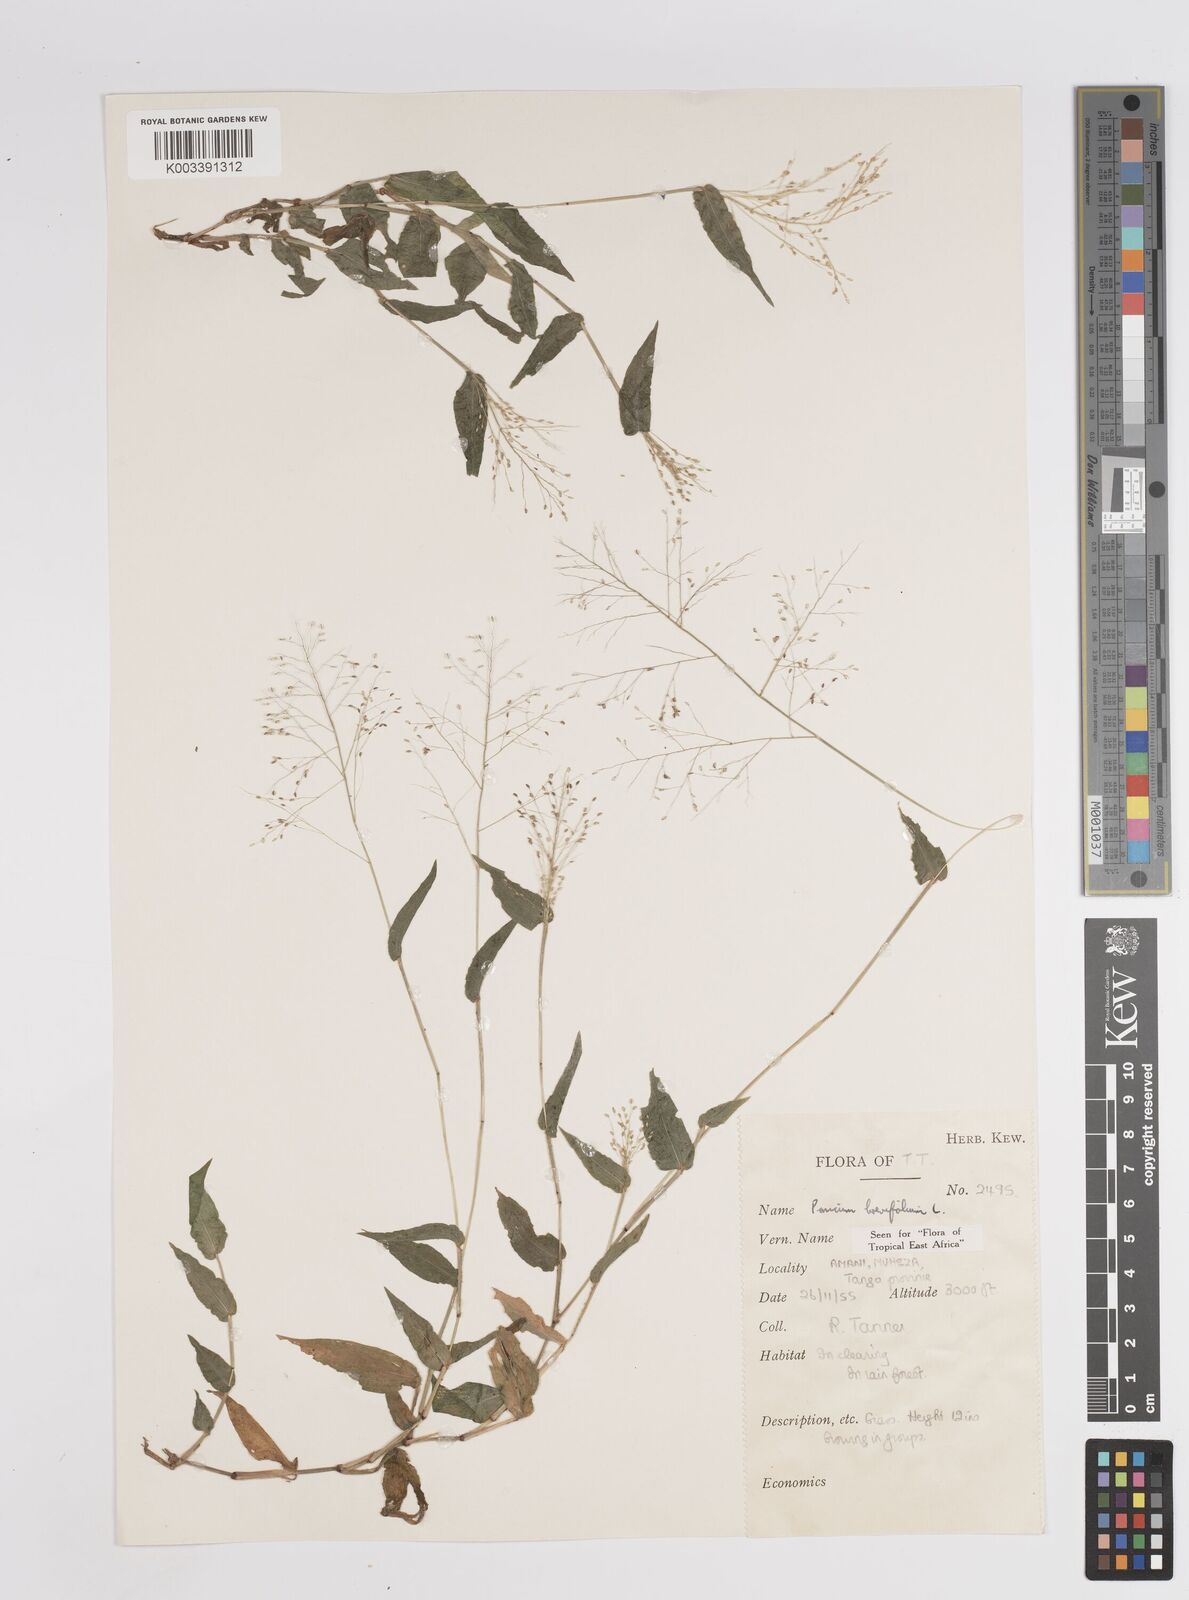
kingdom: Plantae
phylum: Tracheophyta
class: Liliopsida
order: Poales
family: Poaceae
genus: Panicum
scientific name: Panicum brevifolium
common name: Shortleaf panic grass
